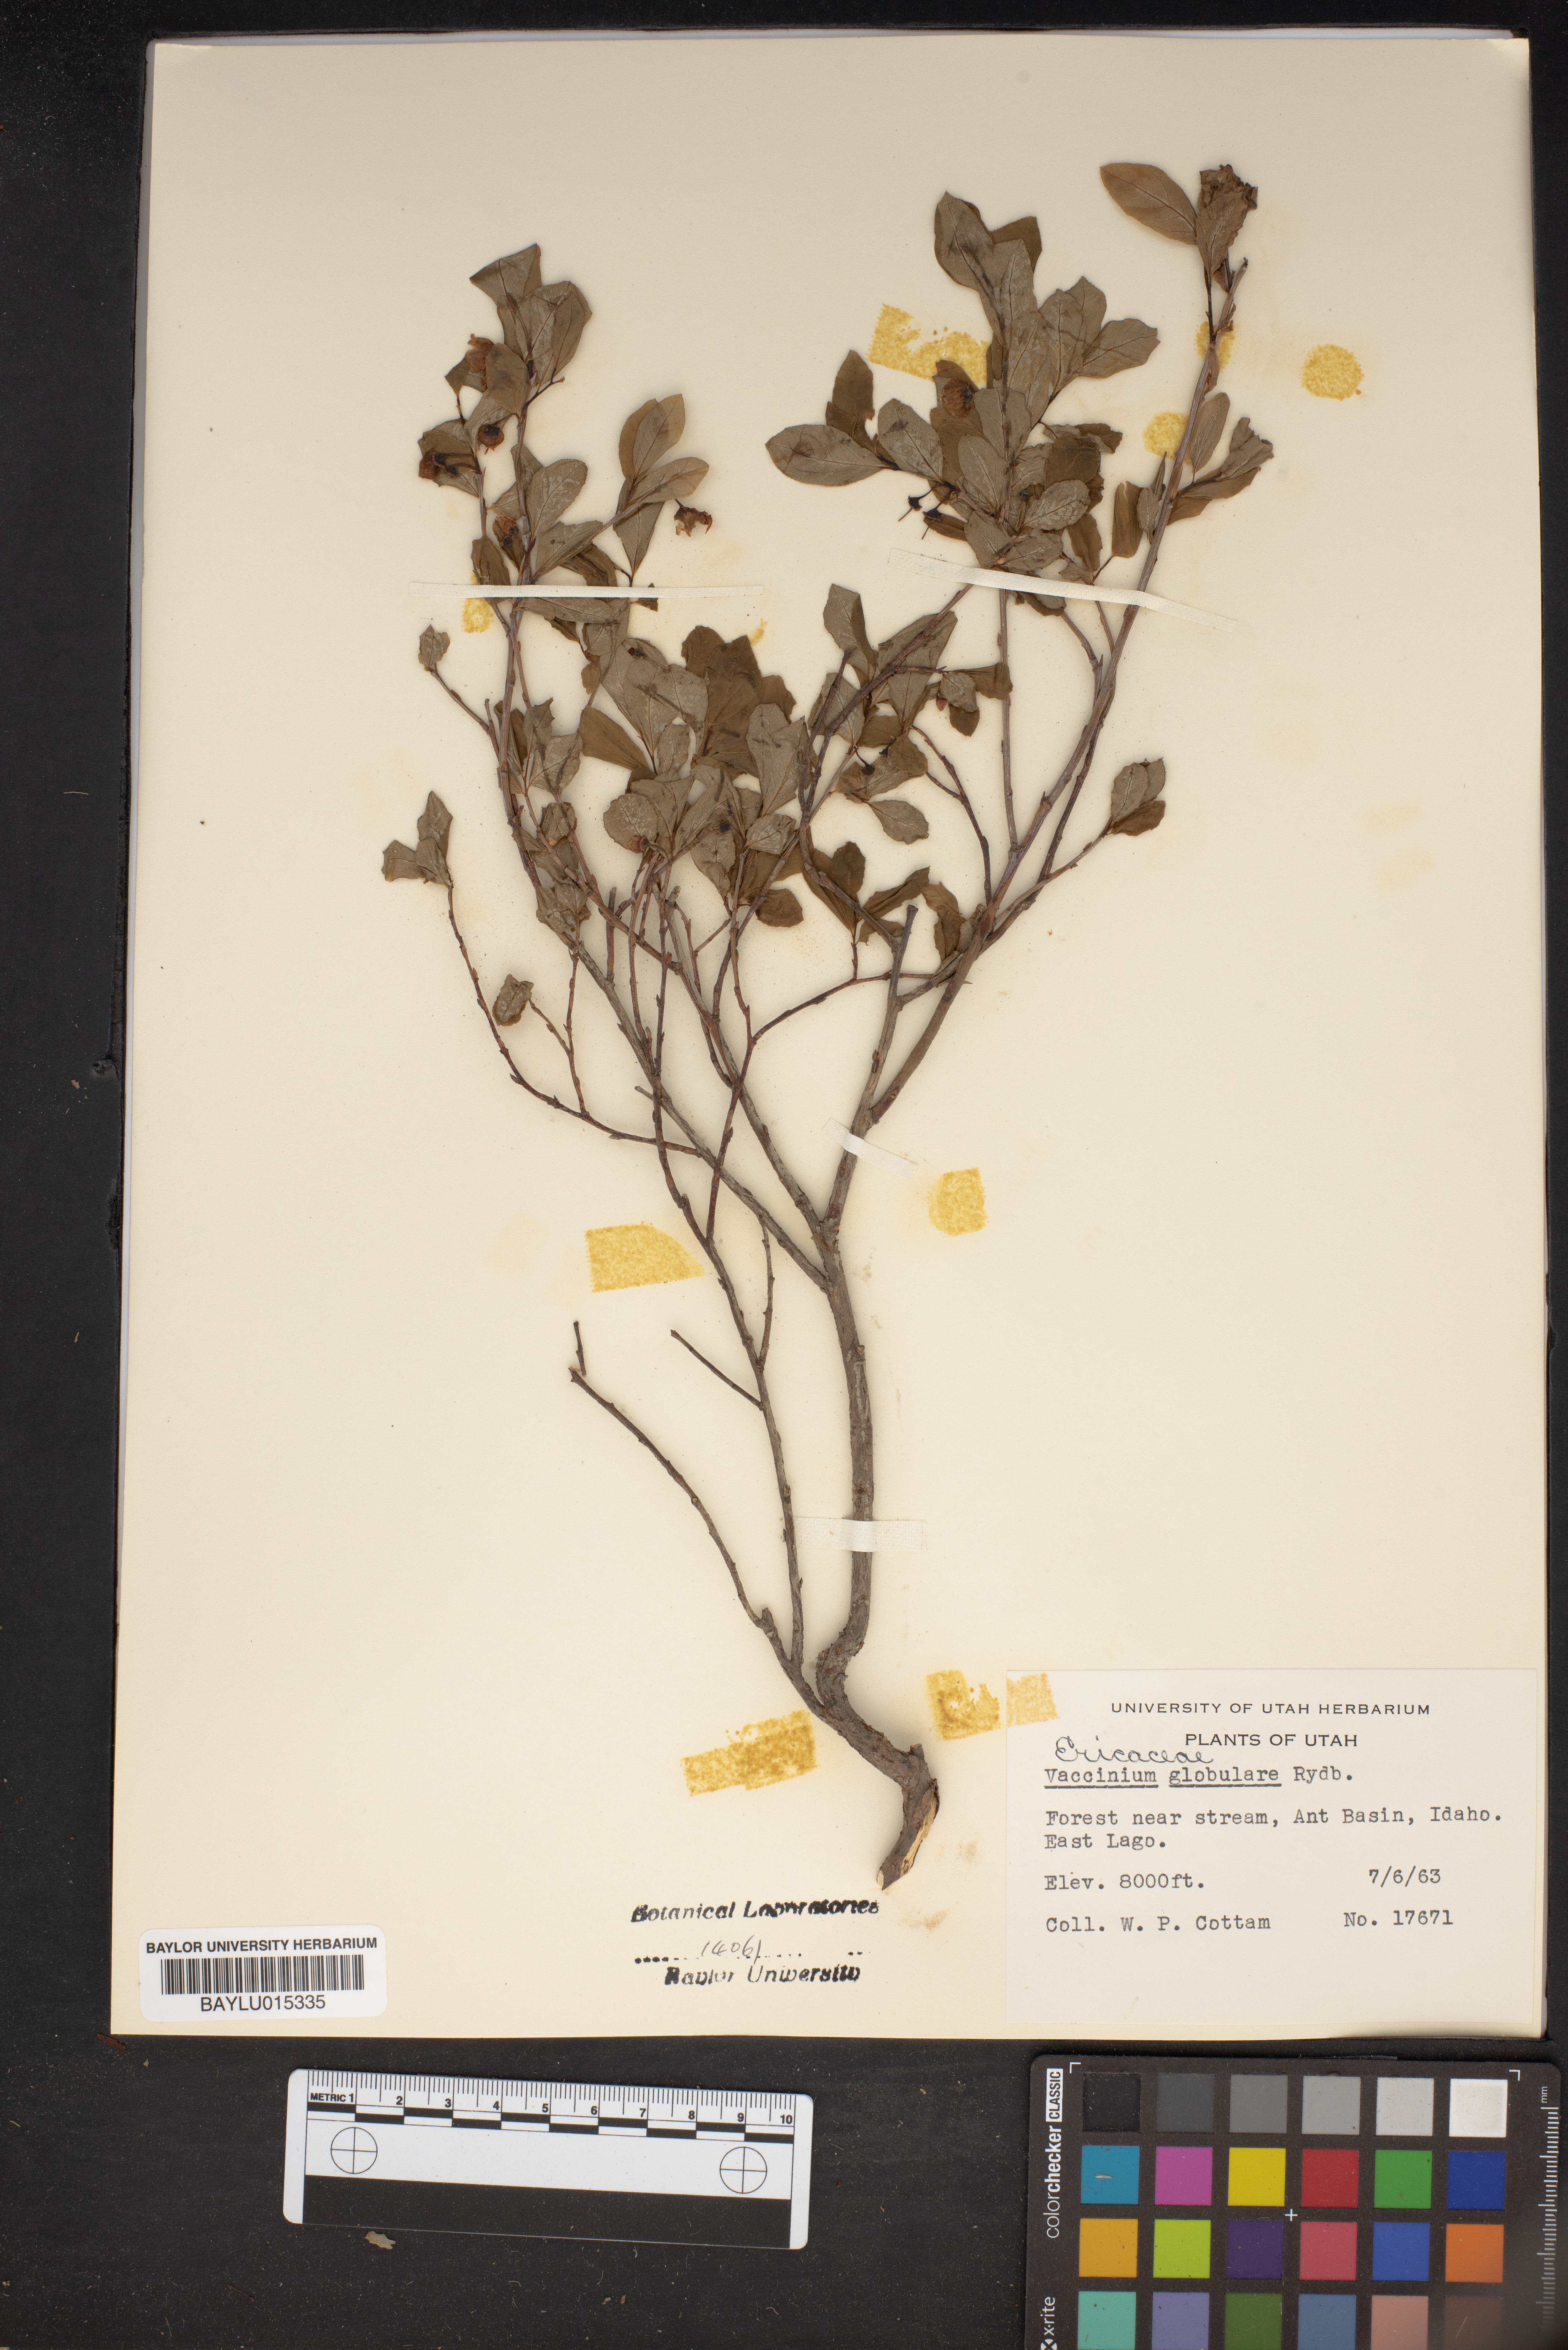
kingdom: Plantae
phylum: Tracheophyta
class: Magnoliopsida
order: Ericales
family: Ericaceae
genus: Vaccinium
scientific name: Vaccinium membranaceum
